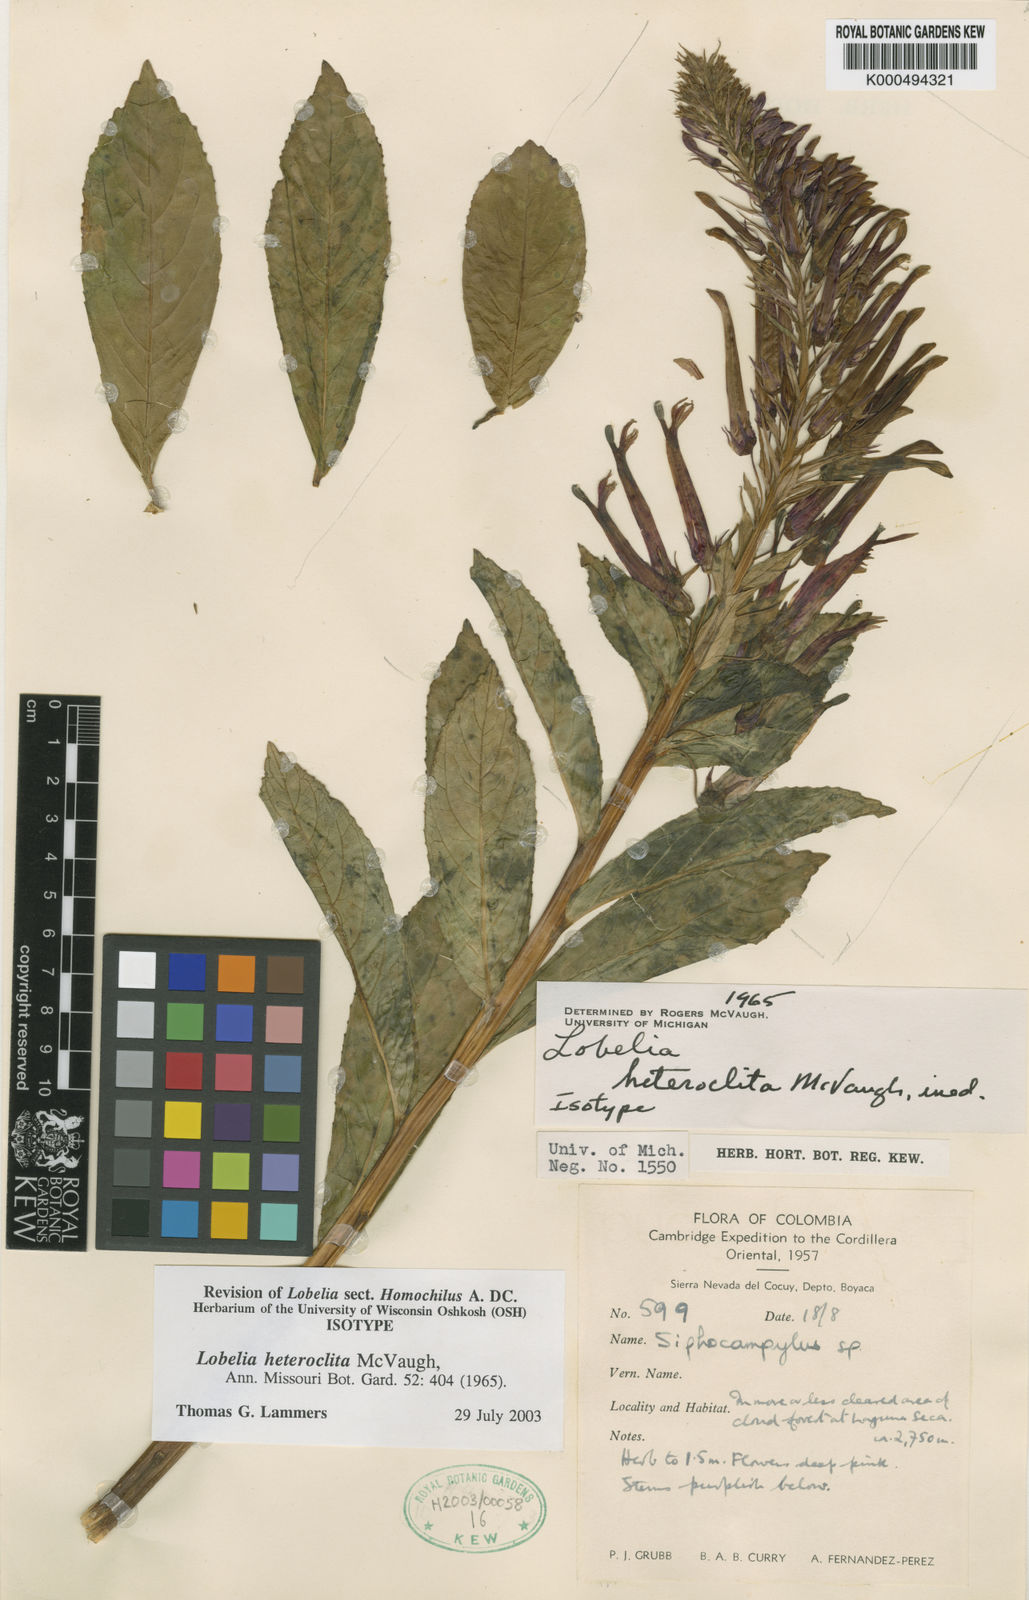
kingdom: Plantae
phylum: Tracheophyta
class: Magnoliopsida
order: Asterales
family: Campanulaceae
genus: Lobelia
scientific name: Lobelia heteroclita
